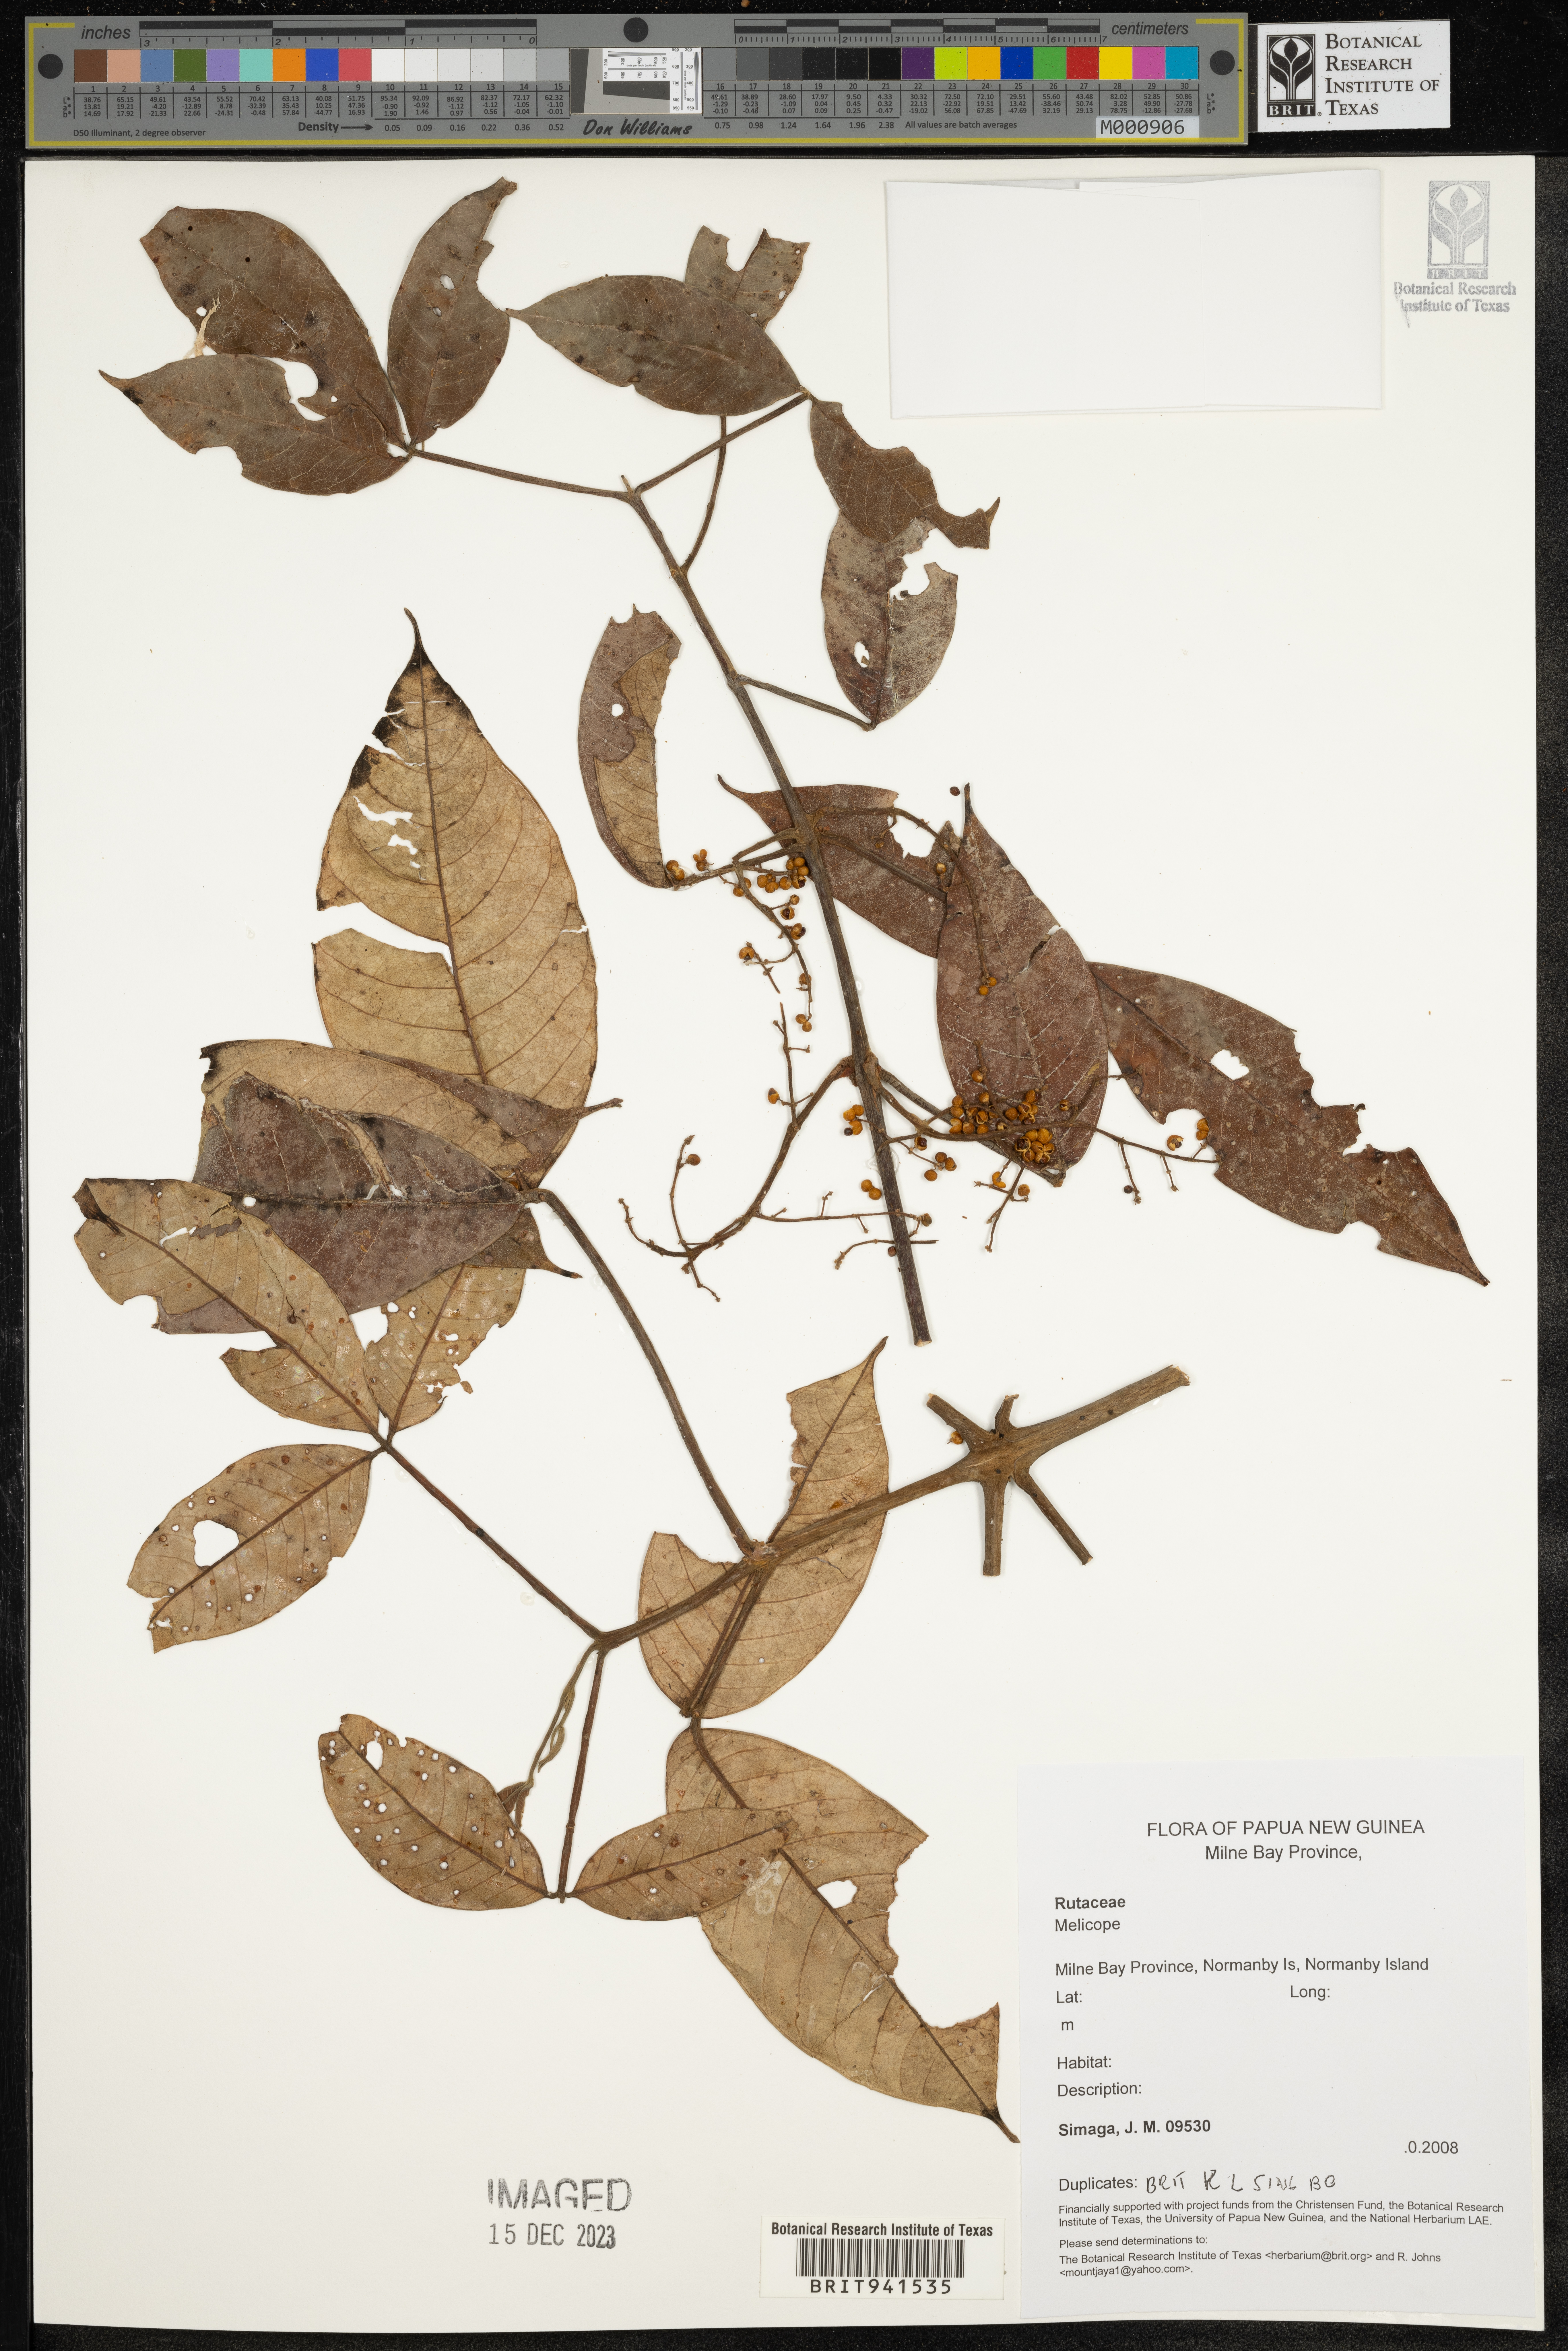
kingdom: Plantae
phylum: Tracheophyta
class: Magnoliopsida
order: Sapindales
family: Rutaceae
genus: Melicope
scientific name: Melicope
